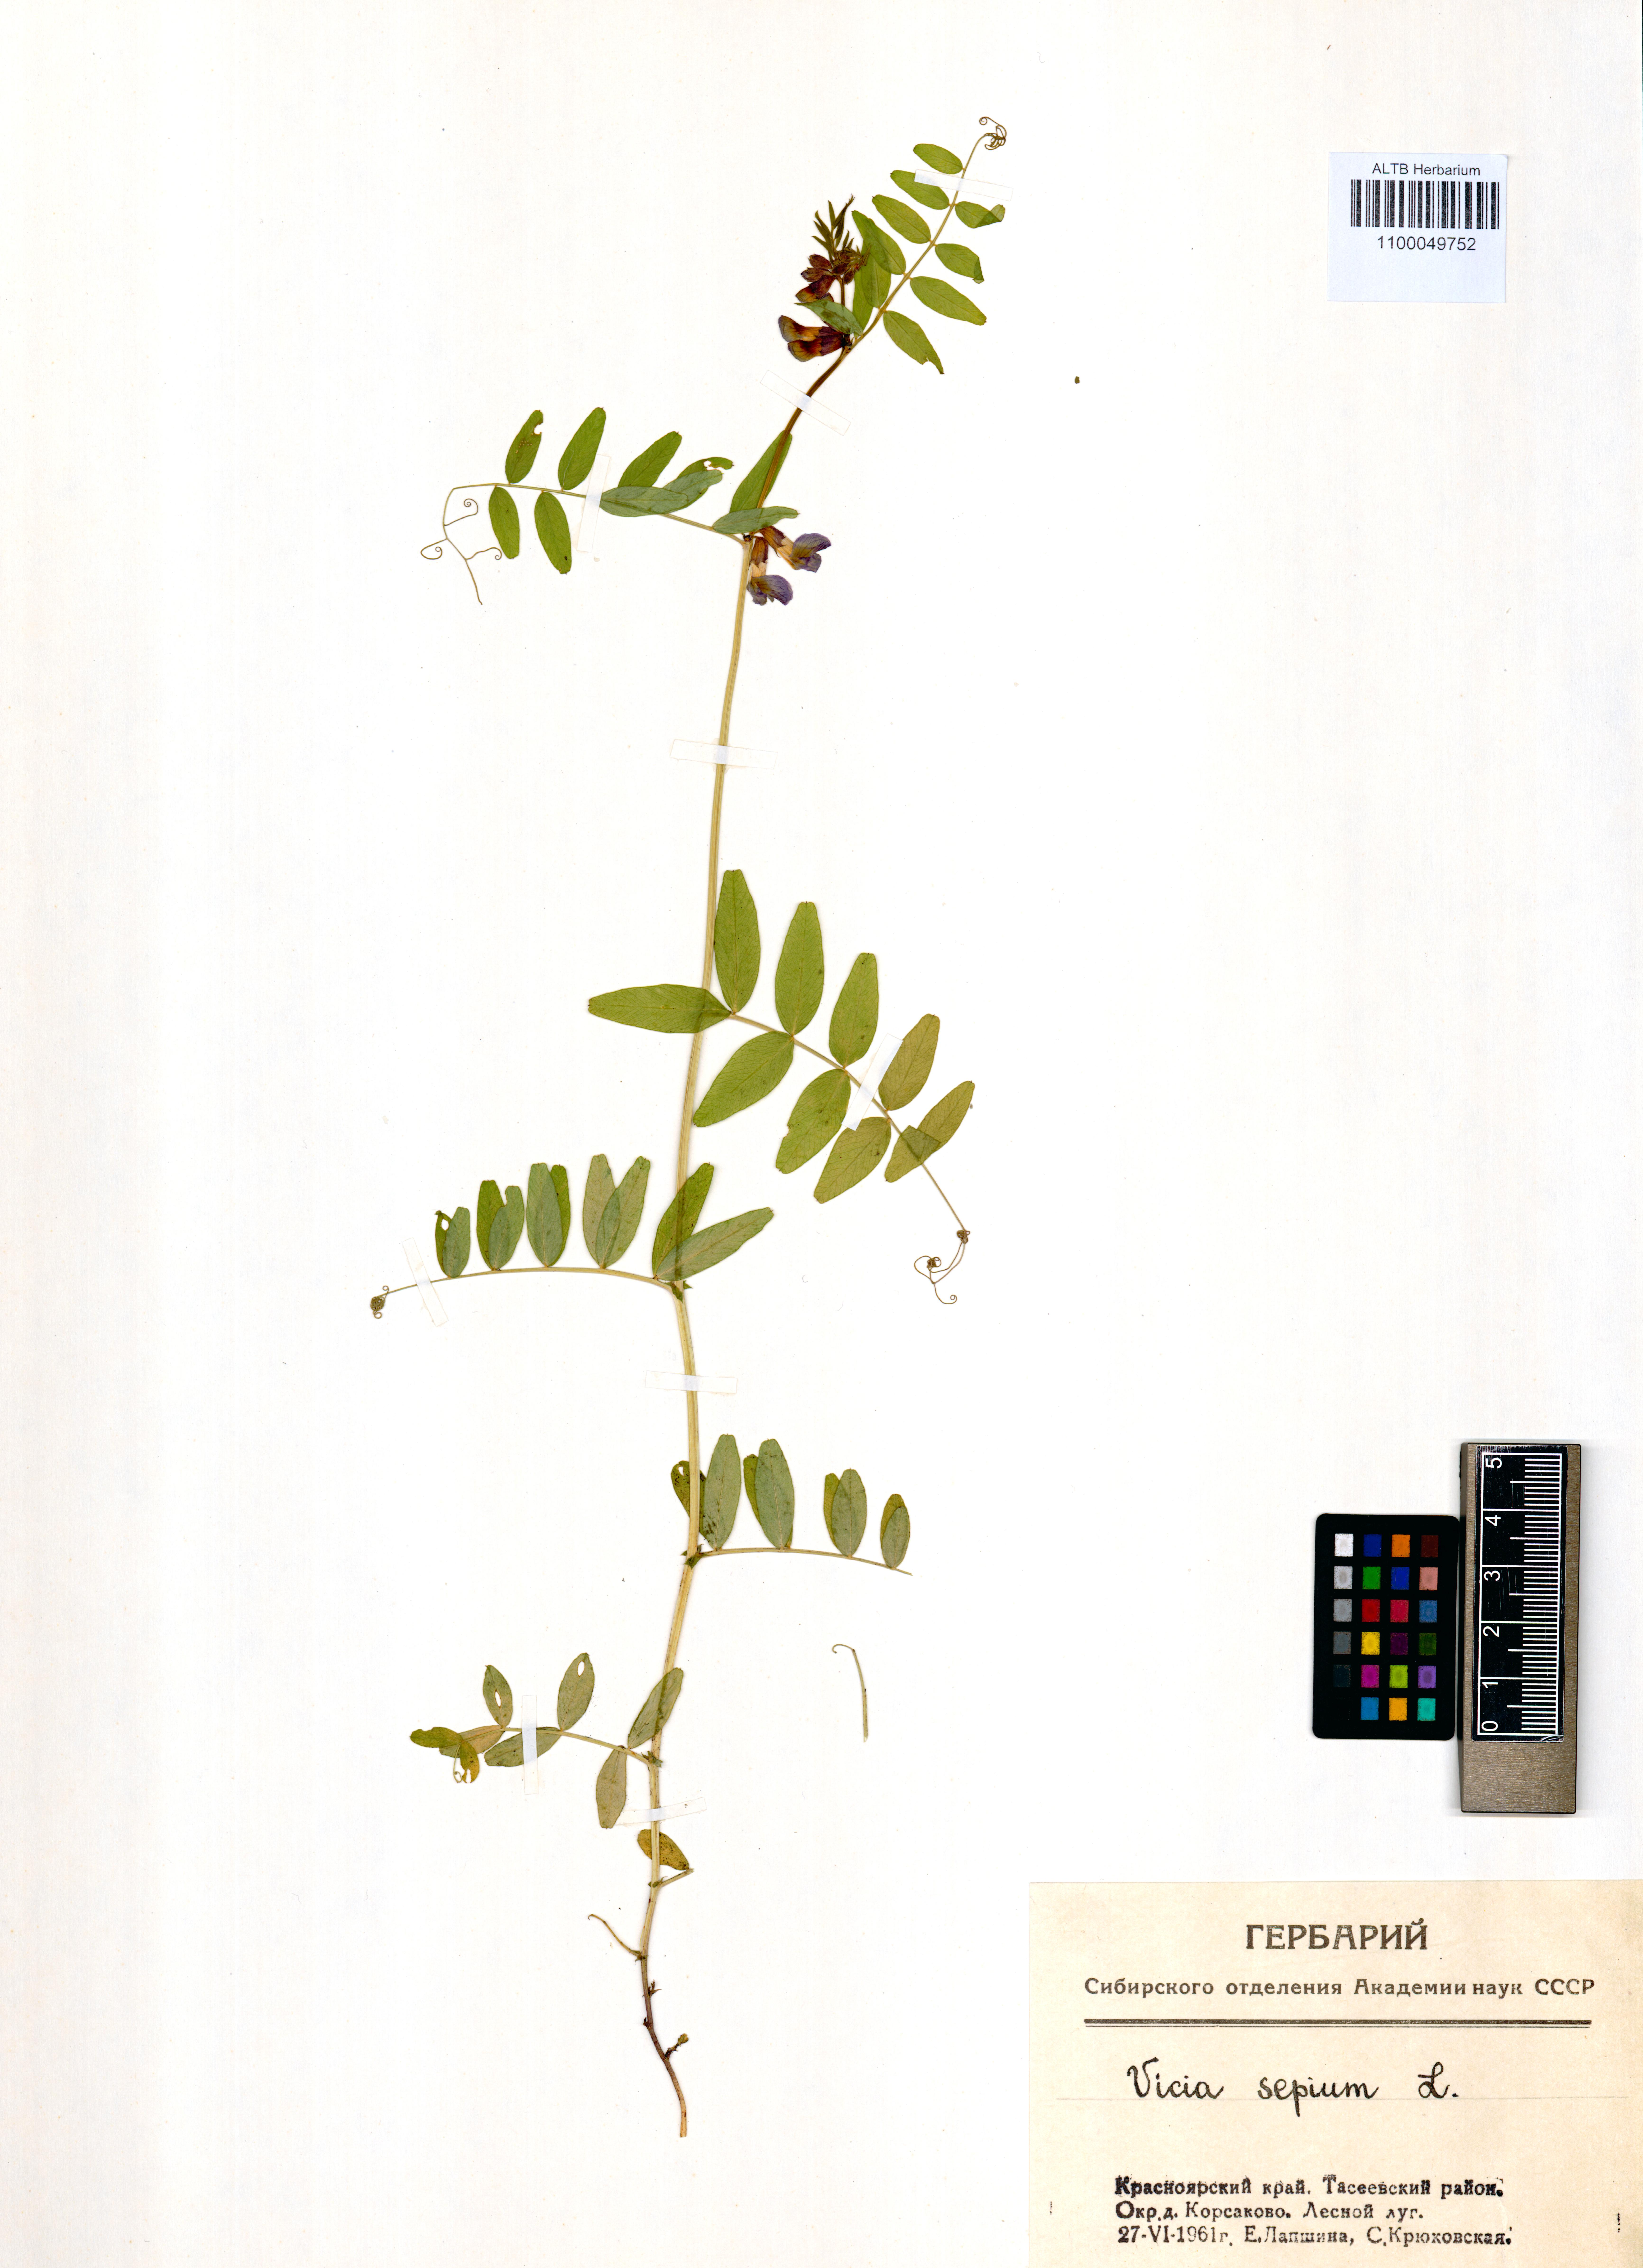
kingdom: Plantae
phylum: Tracheophyta
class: Magnoliopsida
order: Fabales
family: Fabaceae
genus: Vicia
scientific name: Vicia sepium
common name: Bush vetch
